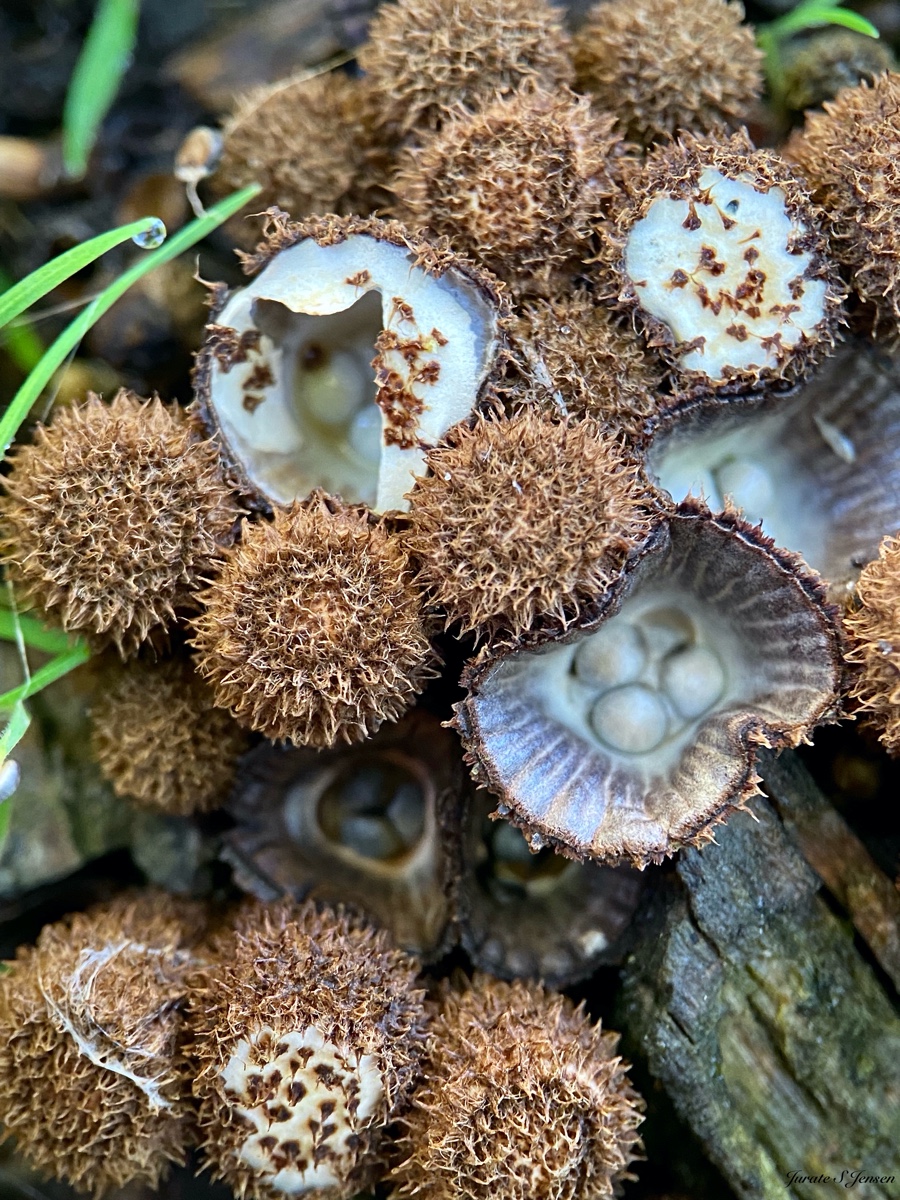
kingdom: Fungi
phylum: Basidiomycota
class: Agaricomycetes
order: Agaricales
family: Agaricaceae
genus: Cyathus
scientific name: Cyathus striatus
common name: stribet redesvamp
